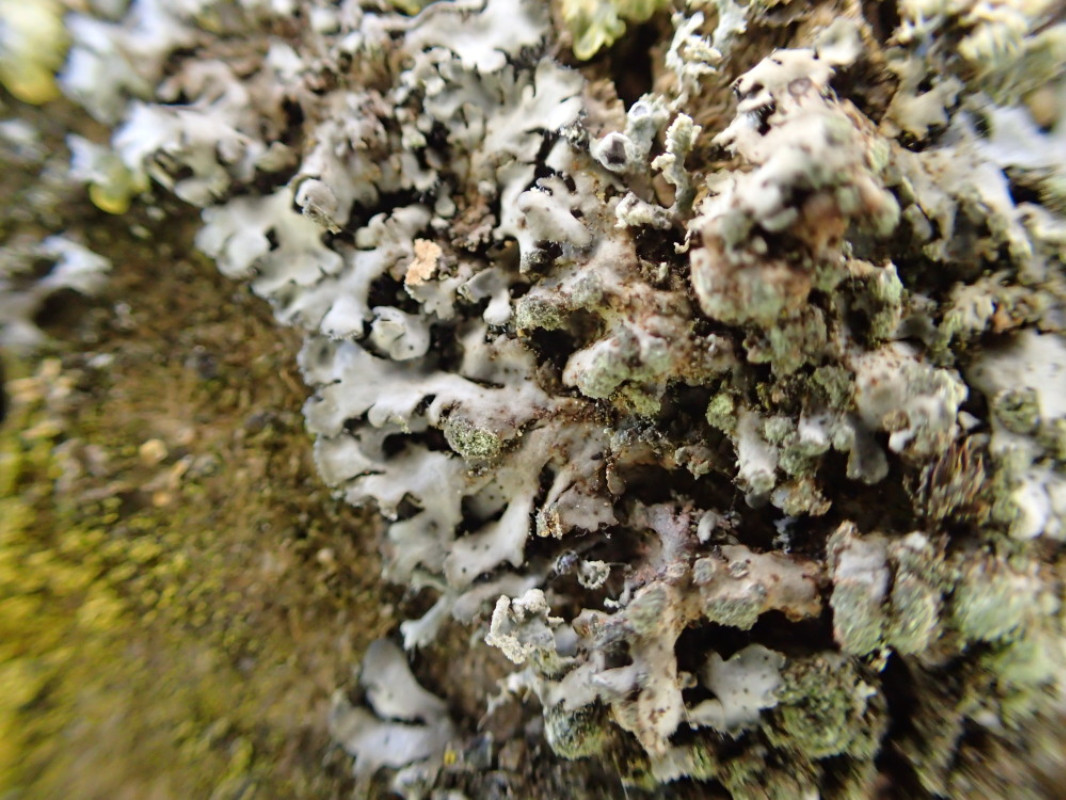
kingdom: Fungi
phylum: Ascomycota
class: Lecanoromycetes
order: Caliciales
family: Physciaceae
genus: Phaeophyscia
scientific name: Phaeophyscia orbicularis
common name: grågrøn rosetlav
